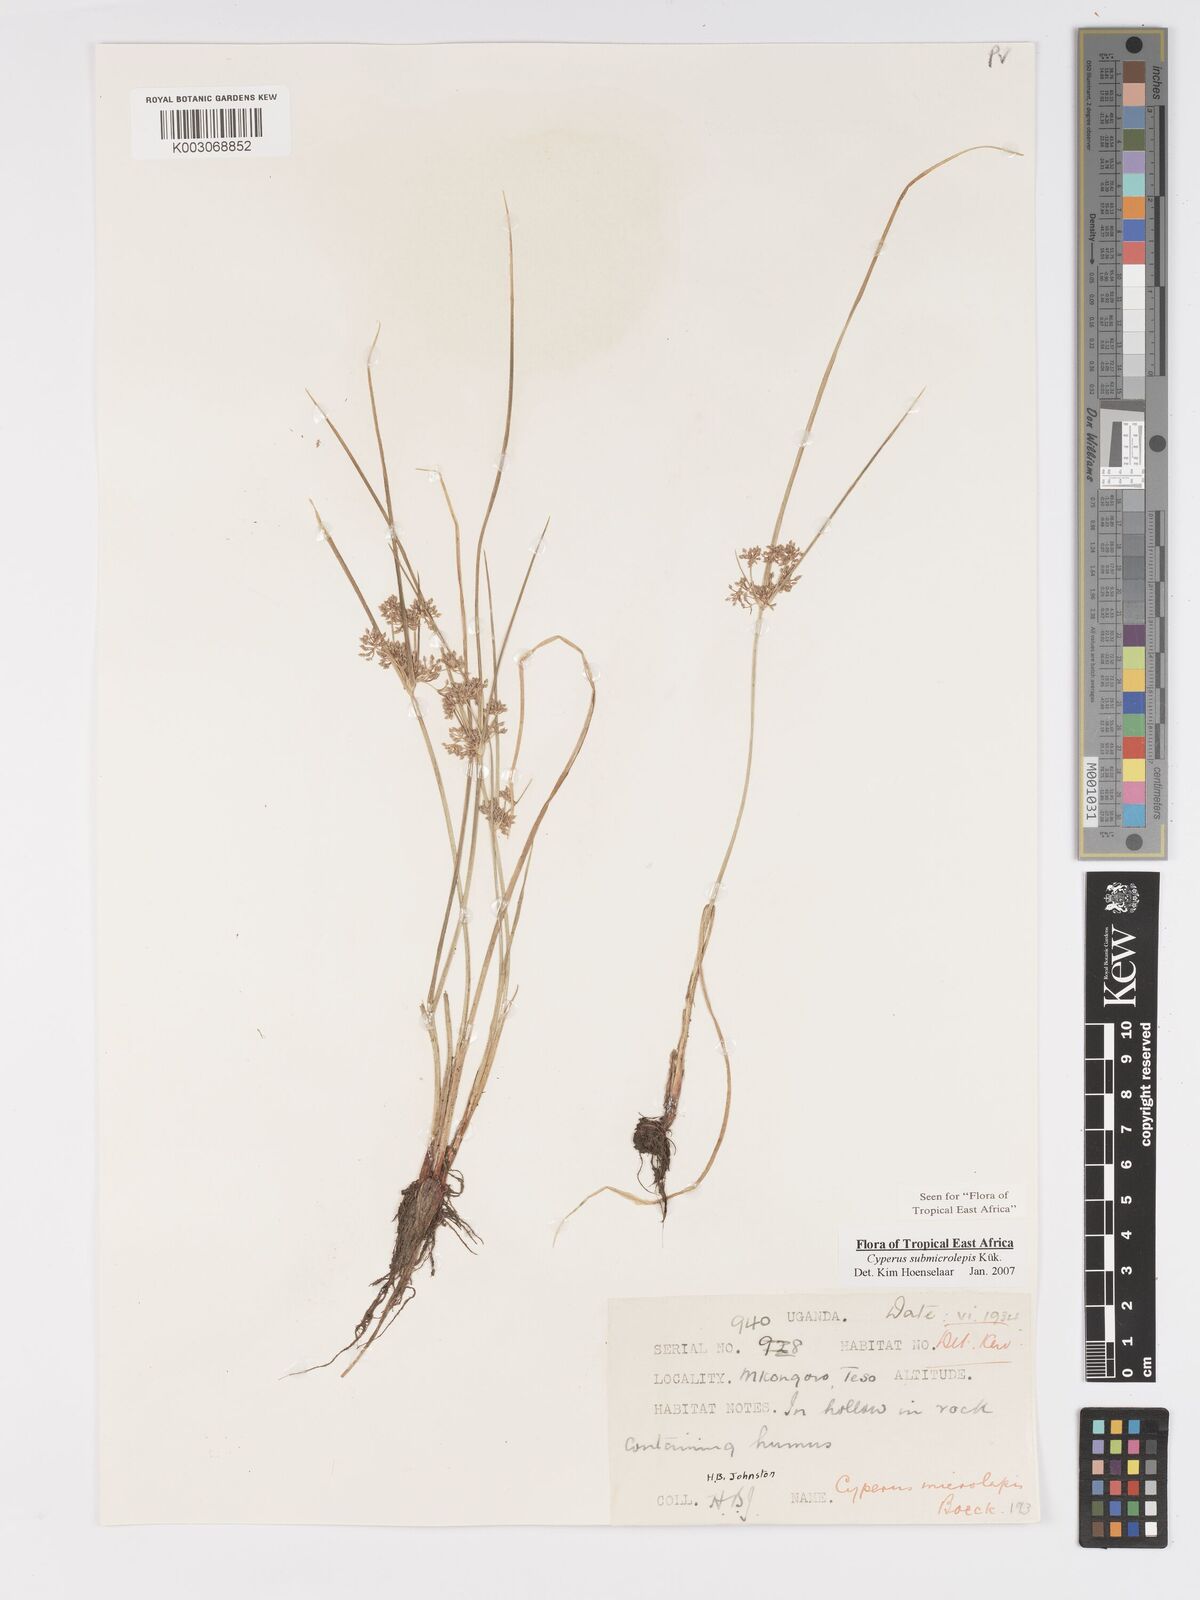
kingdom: Plantae
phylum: Tracheophyta
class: Liliopsida
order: Poales
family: Cyperaceae
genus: Cyperus
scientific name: Cyperus neoguinensis
